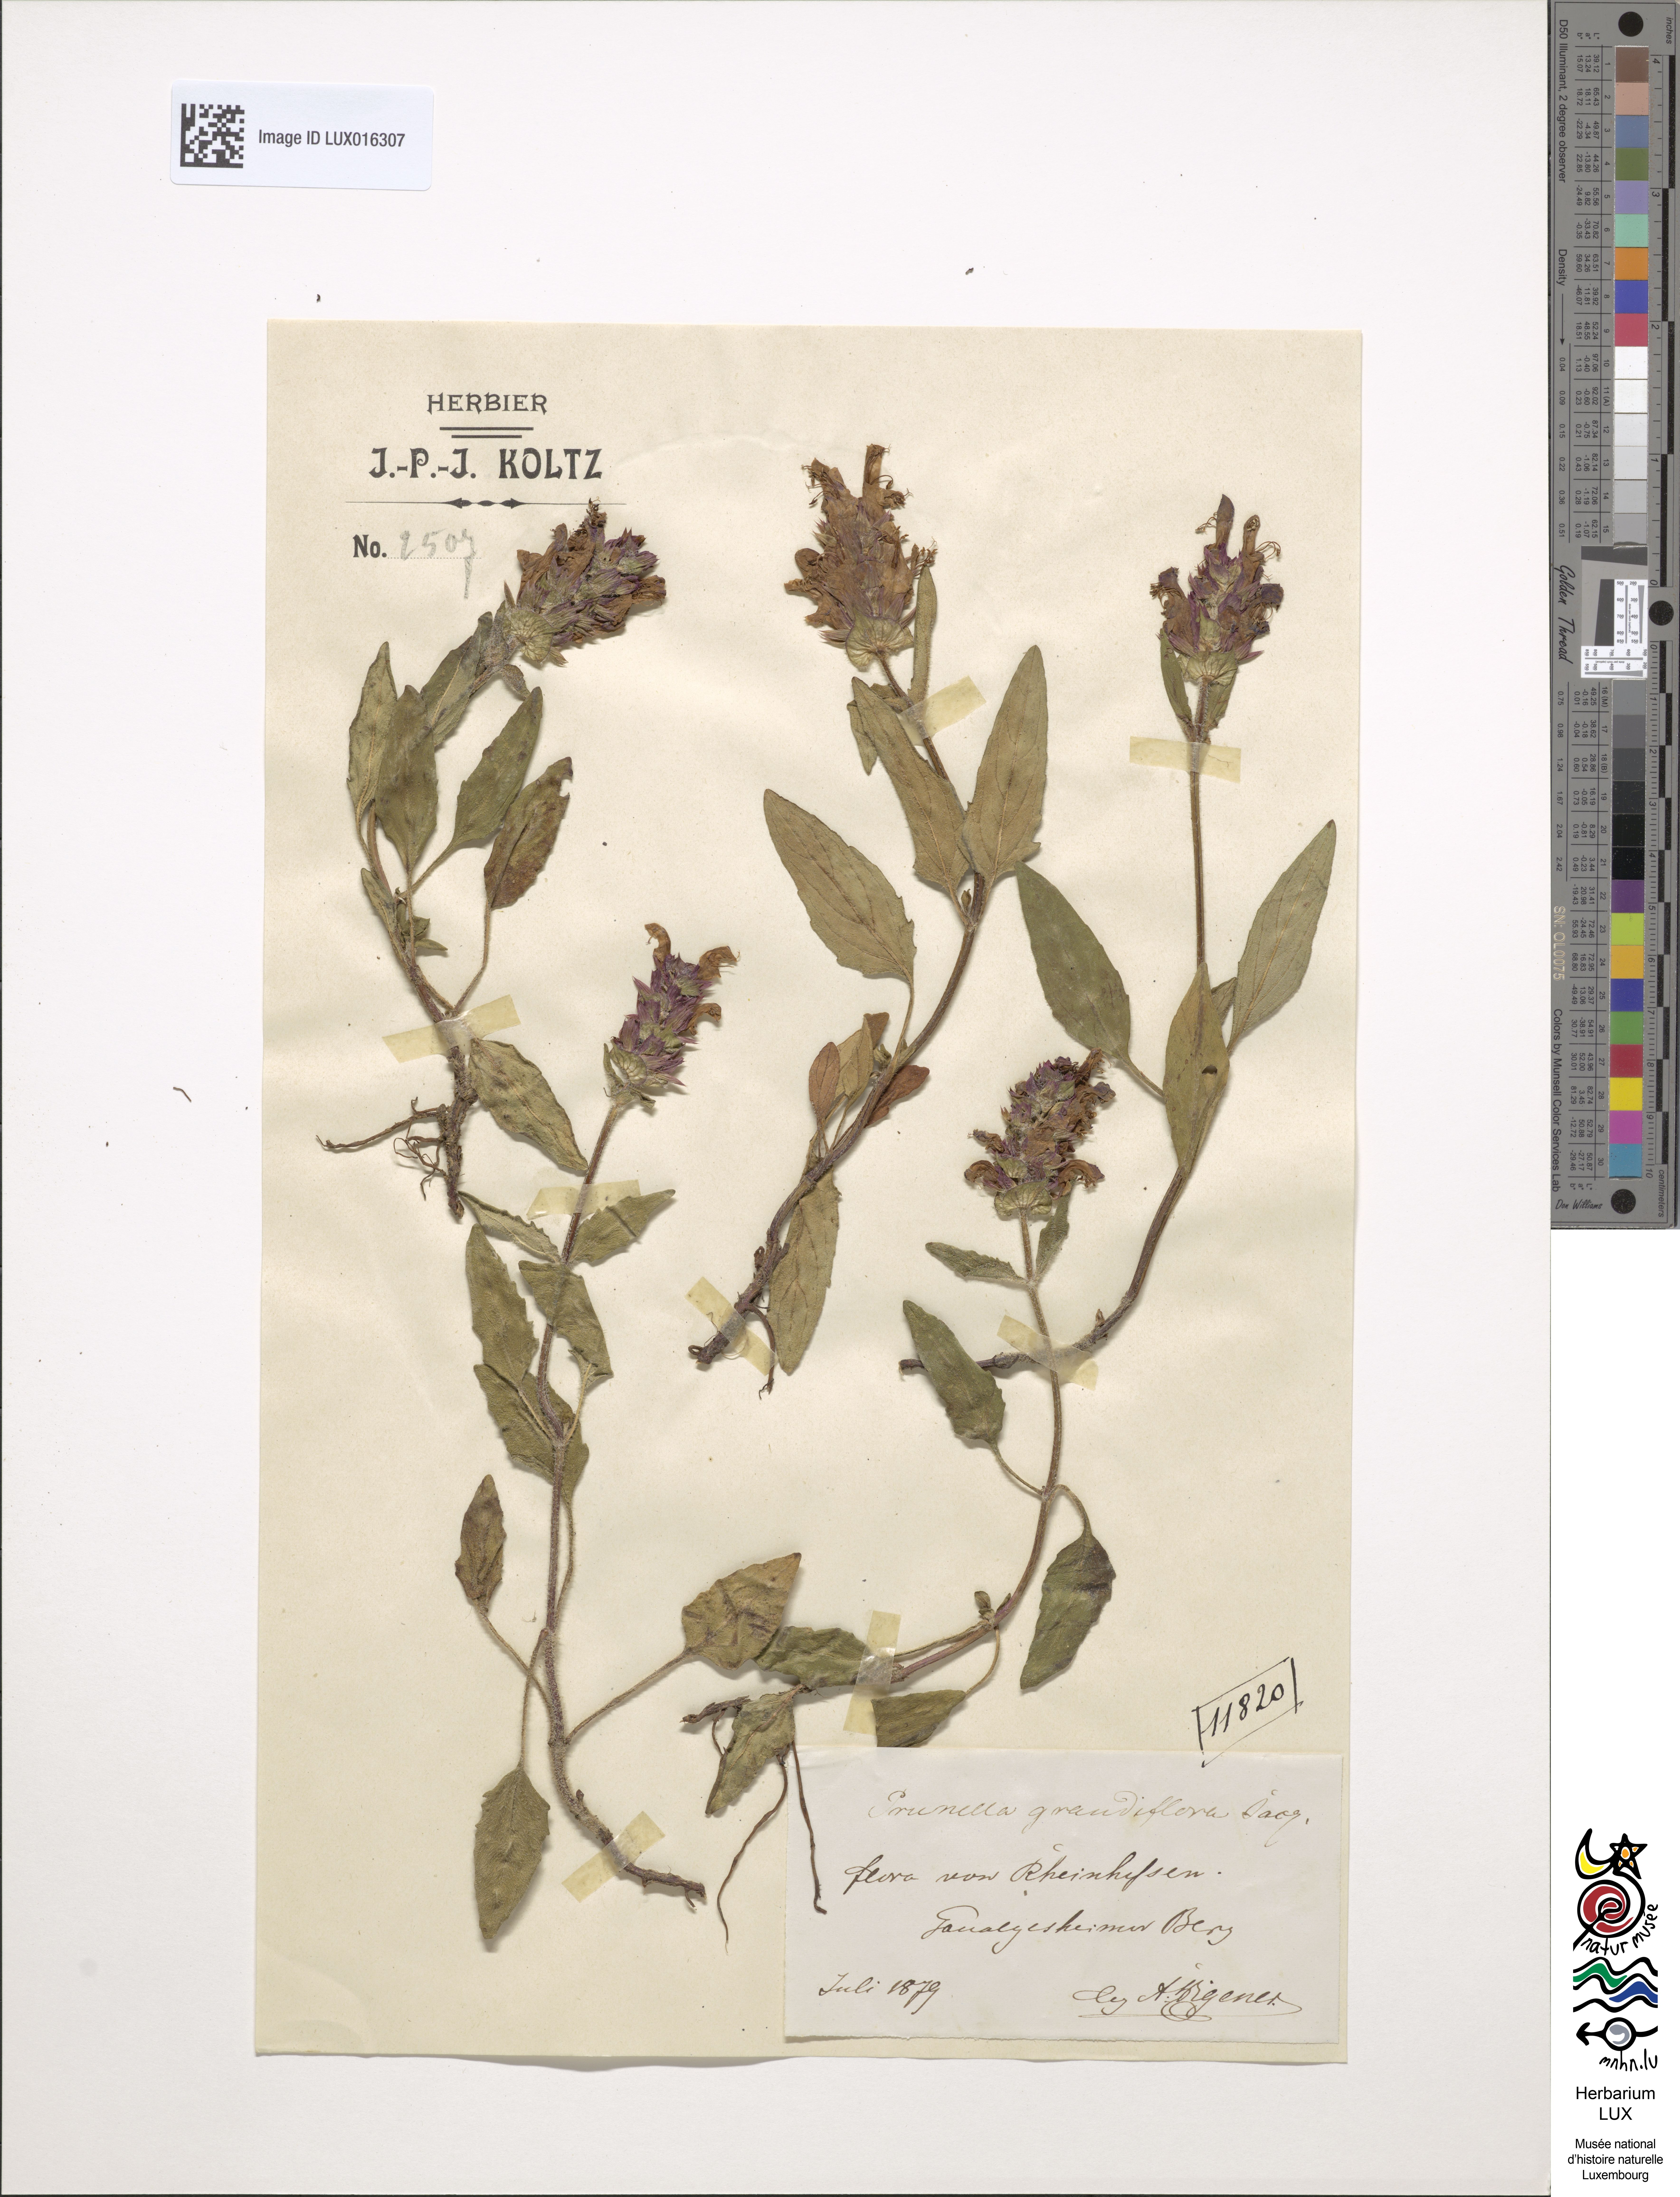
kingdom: Plantae
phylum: Tracheophyta
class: Magnoliopsida
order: Lamiales
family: Lamiaceae
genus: Prunella
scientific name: Prunella grandiflora
